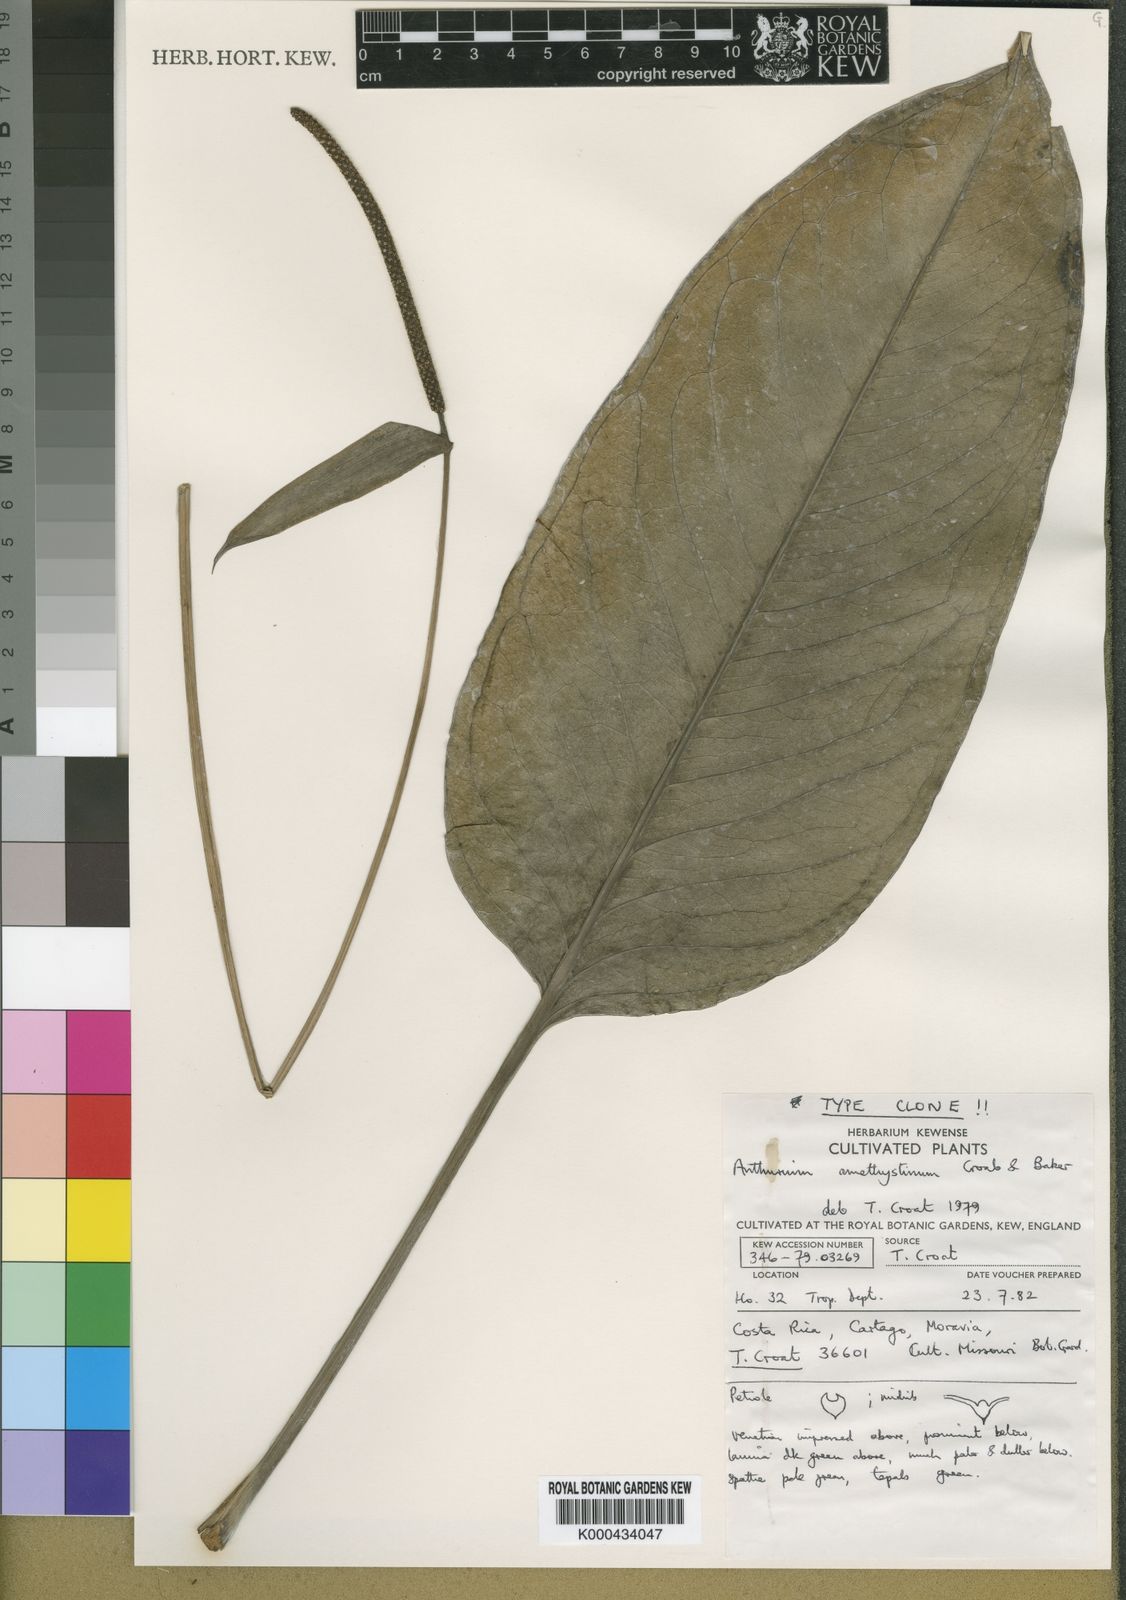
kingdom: Plantae
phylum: Tracheophyta
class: Liliopsida
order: Alismatales
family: Araceae
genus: Anthurium
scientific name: Anthurium michelii
